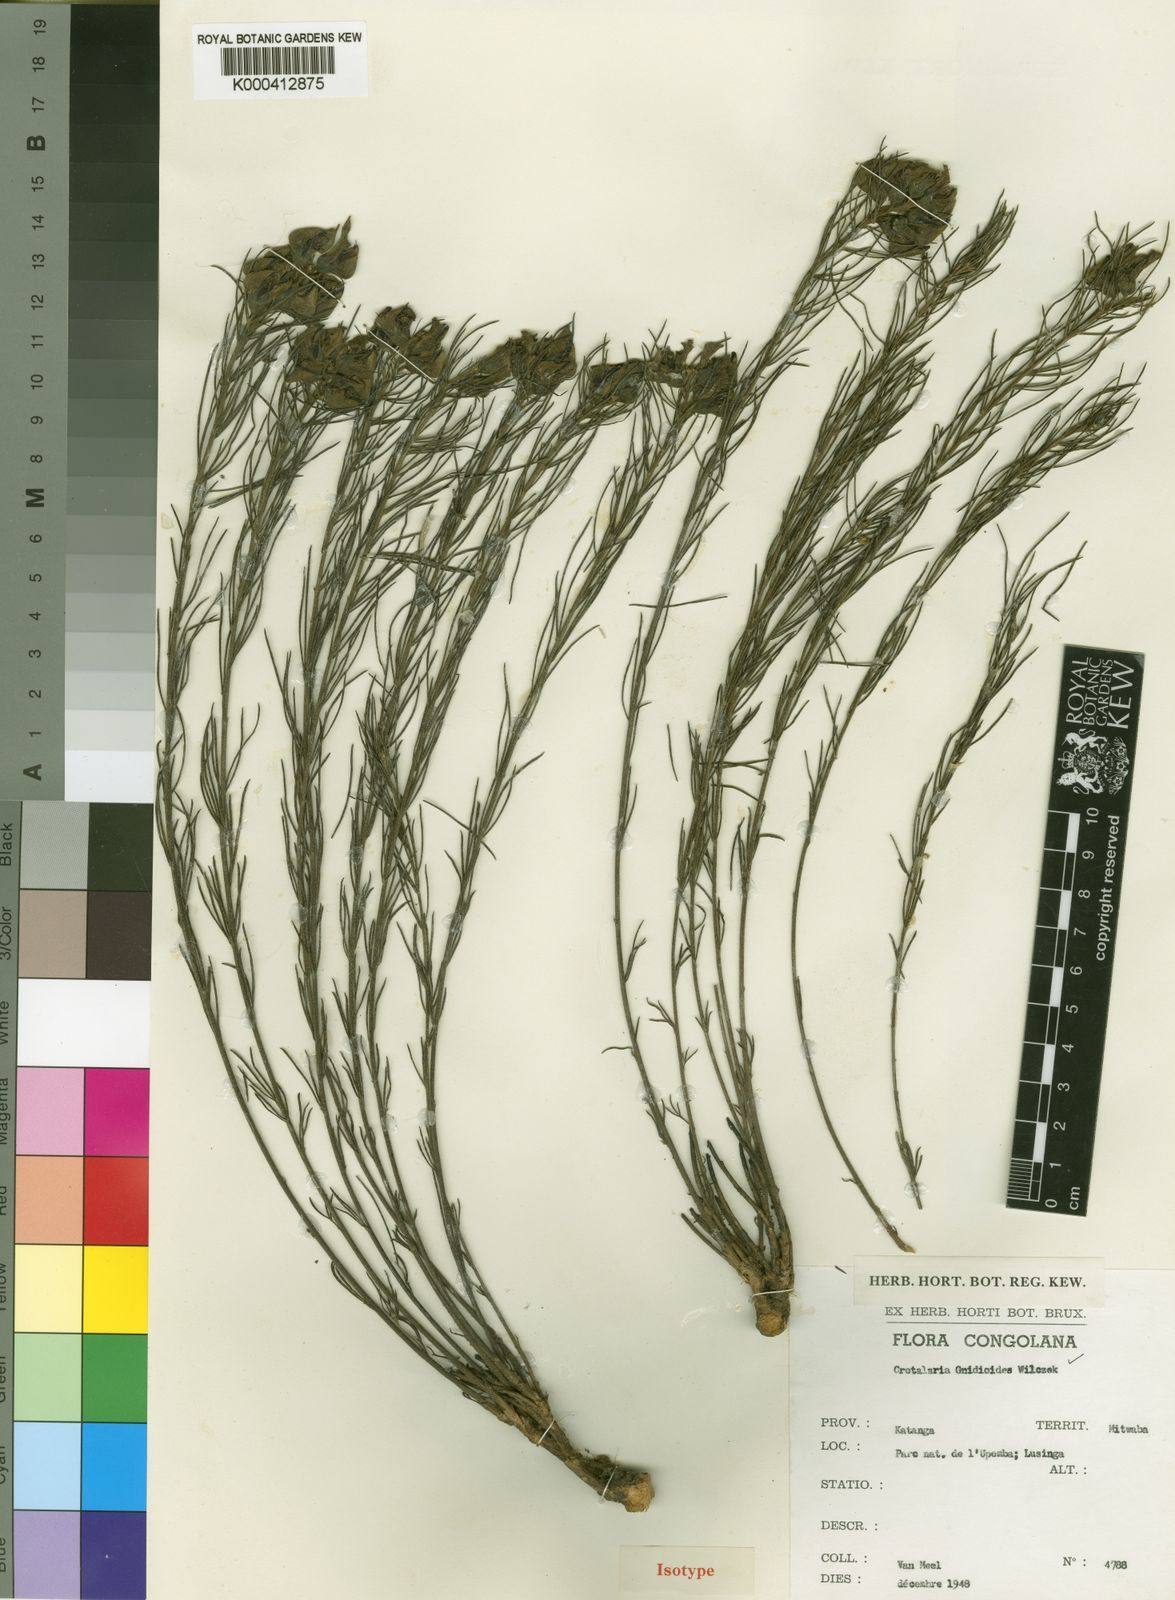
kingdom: Plantae
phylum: Tracheophyta
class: Magnoliopsida
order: Fabales
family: Fabaceae
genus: Crotalaria
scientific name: Crotalaria gnidioides
